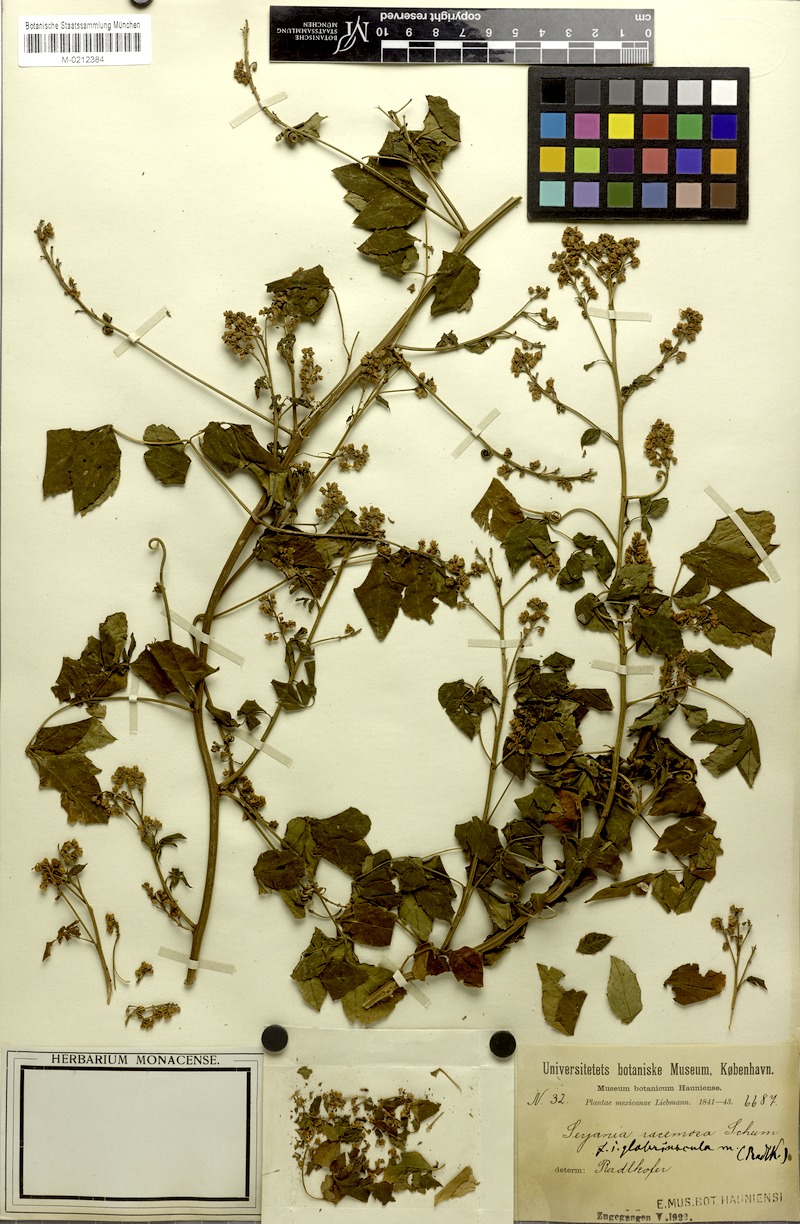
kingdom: Plantae
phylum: Tracheophyta
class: Magnoliopsida
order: Sapindales
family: Sapindaceae
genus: Serjania
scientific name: Serjania racemosa
